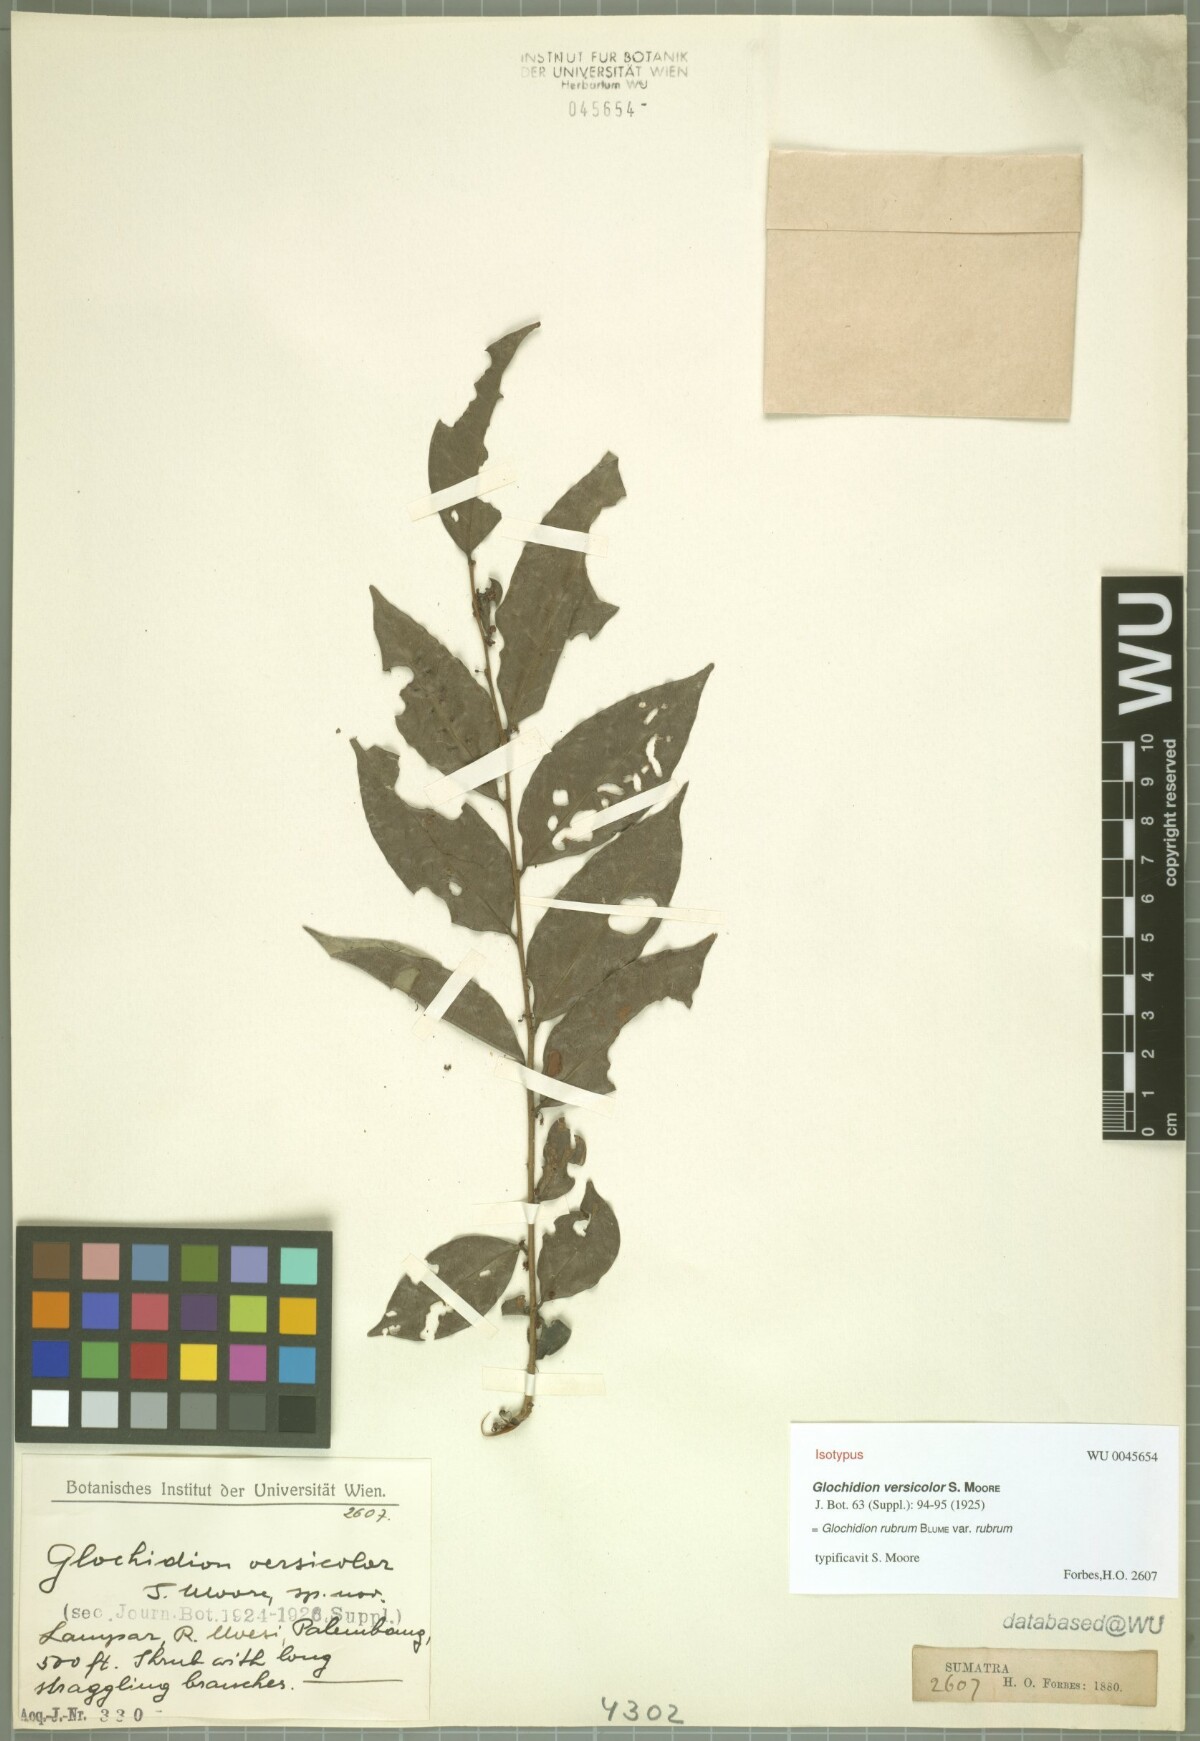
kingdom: Plantae
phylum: Tracheophyta
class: Magnoliopsida
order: Malpighiales
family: Phyllanthaceae
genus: Glochidion
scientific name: Glochidion rubrum
